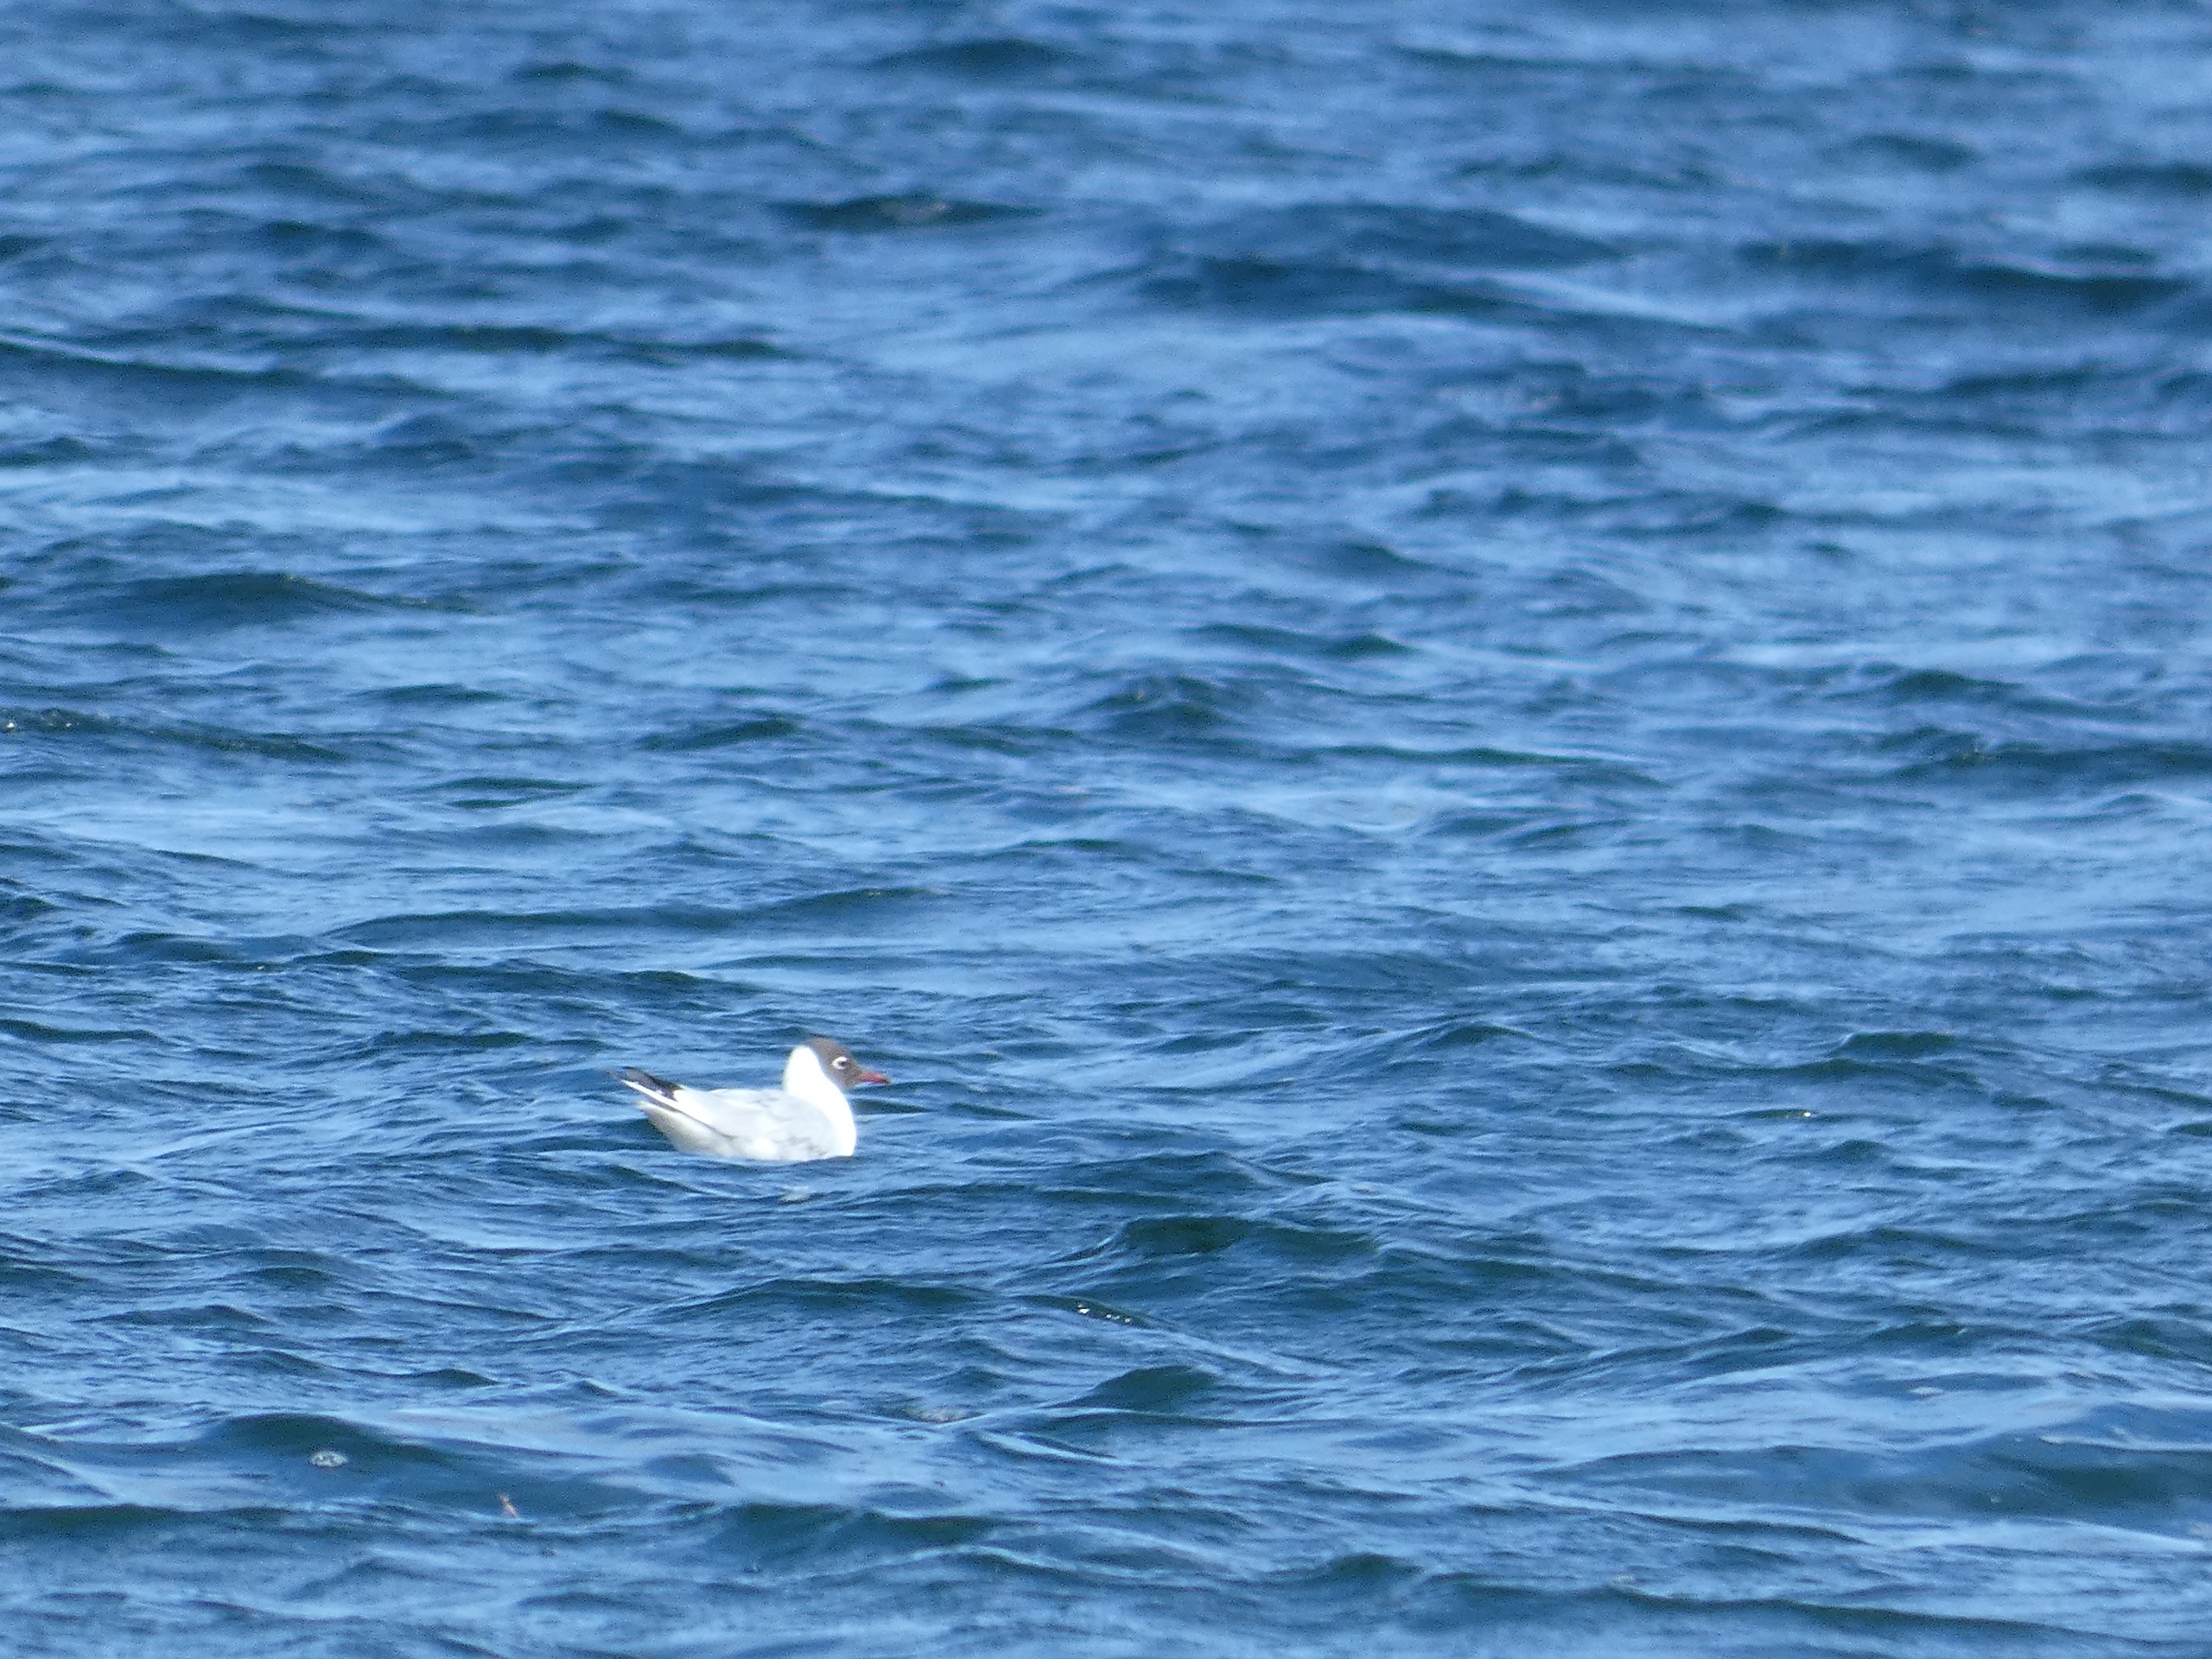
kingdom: Animalia
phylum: Chordata
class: Aves
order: Charadriiformes
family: Laridae
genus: Chroicocephalus
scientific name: Chroicocephalus ridibundus
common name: Hættemåge
